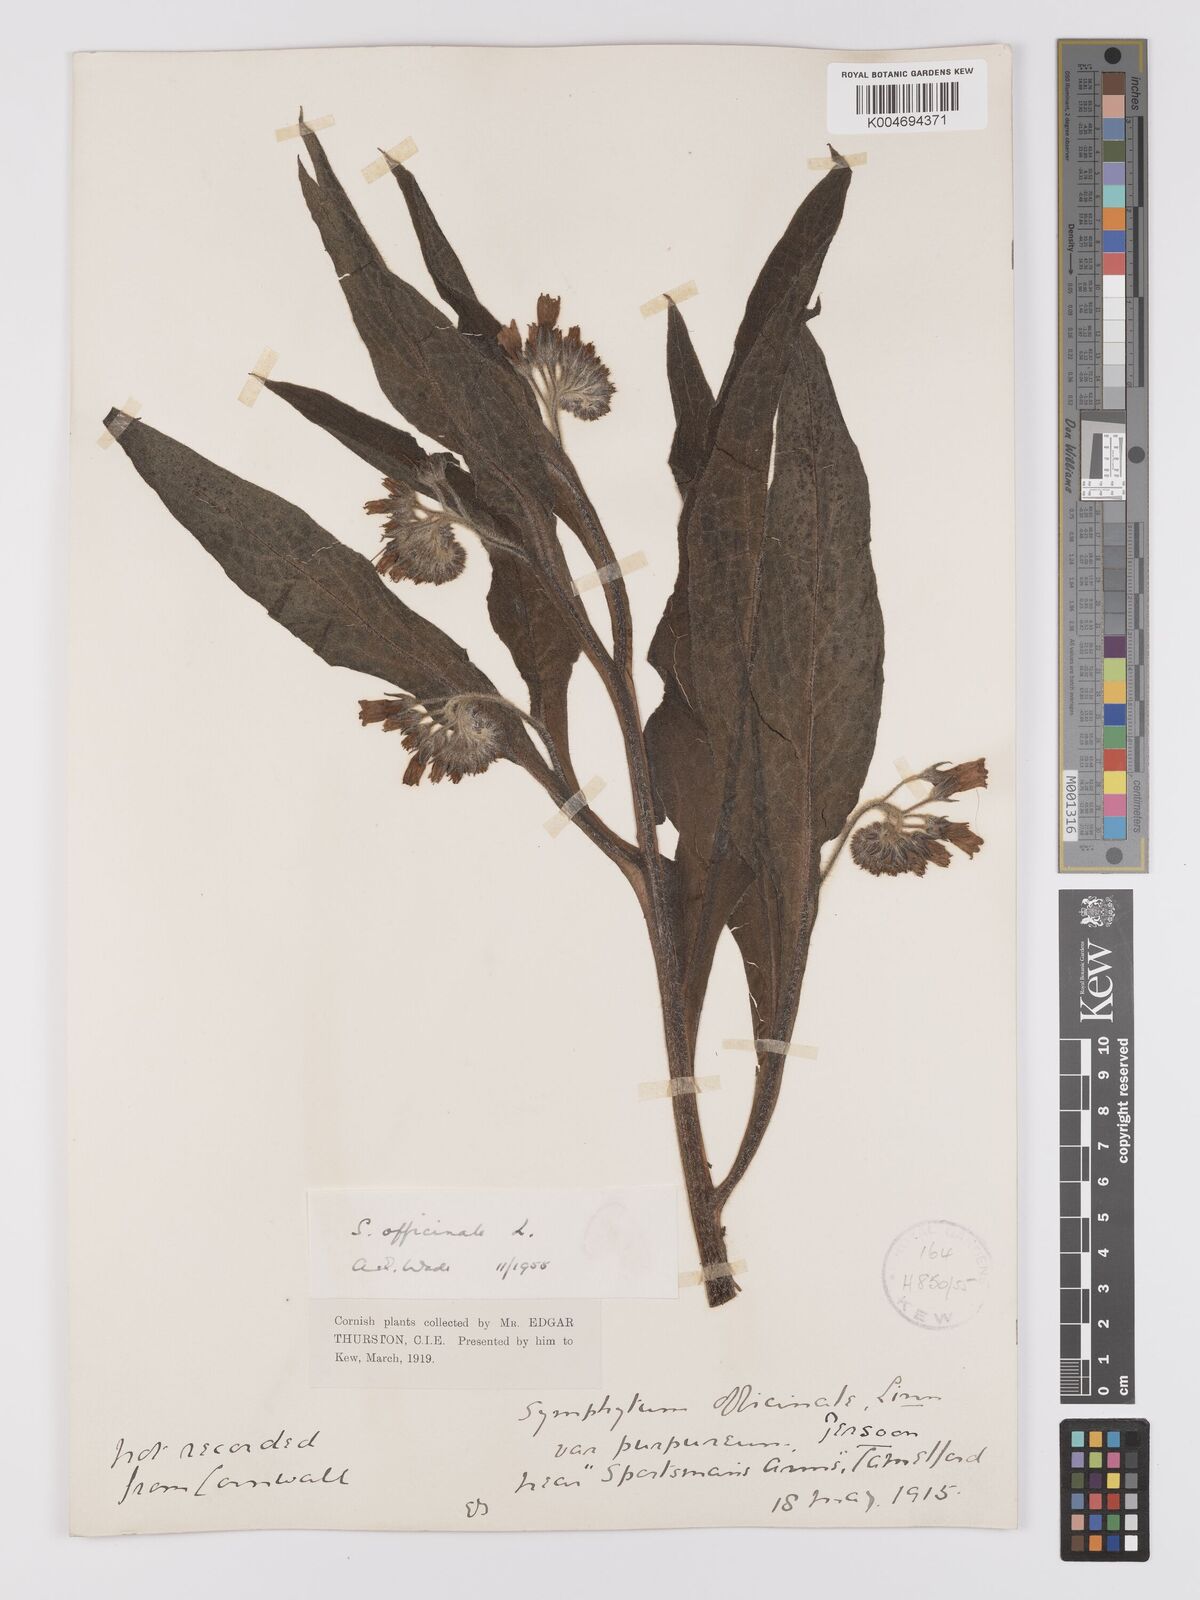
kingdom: Plantae
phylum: Tracheophyta
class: Magnoliopsida
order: Boraginales
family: Boraginaceae
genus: Symphytum
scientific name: Symphytum officinale
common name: Common comfrey
